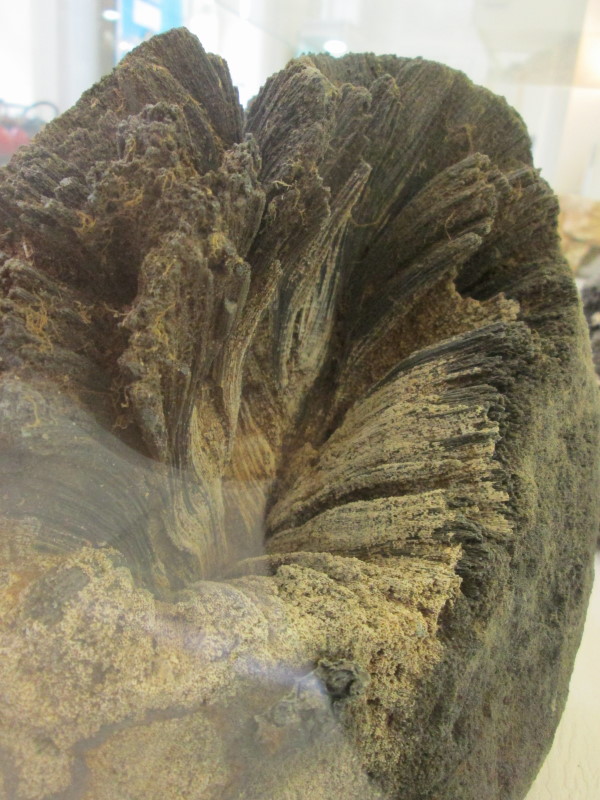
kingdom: Animalia
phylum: Porifera
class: Demospongiae
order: Suberitida
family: Suberitidae
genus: Chaetetes
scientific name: Chaetetes radians
